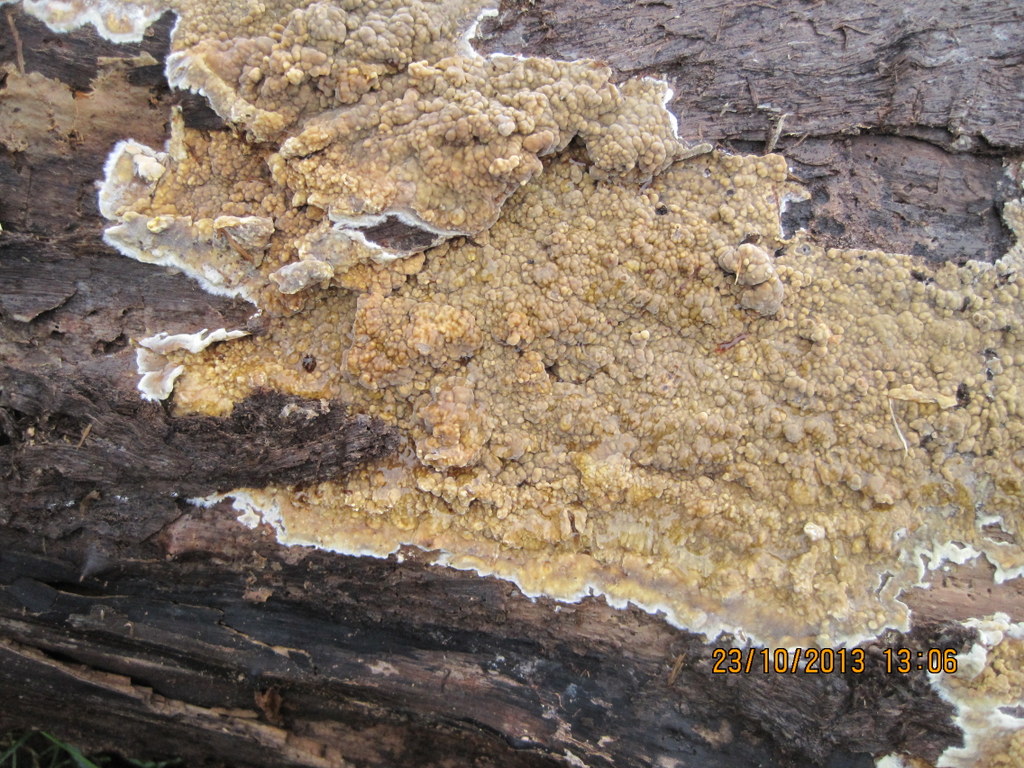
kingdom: Fungi
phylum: Basidiomycota
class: Agaricomycetes
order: Boletales
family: Coniophoraceae
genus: Coniophora
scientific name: Coniophora puteana
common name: gul tømmersvamp
